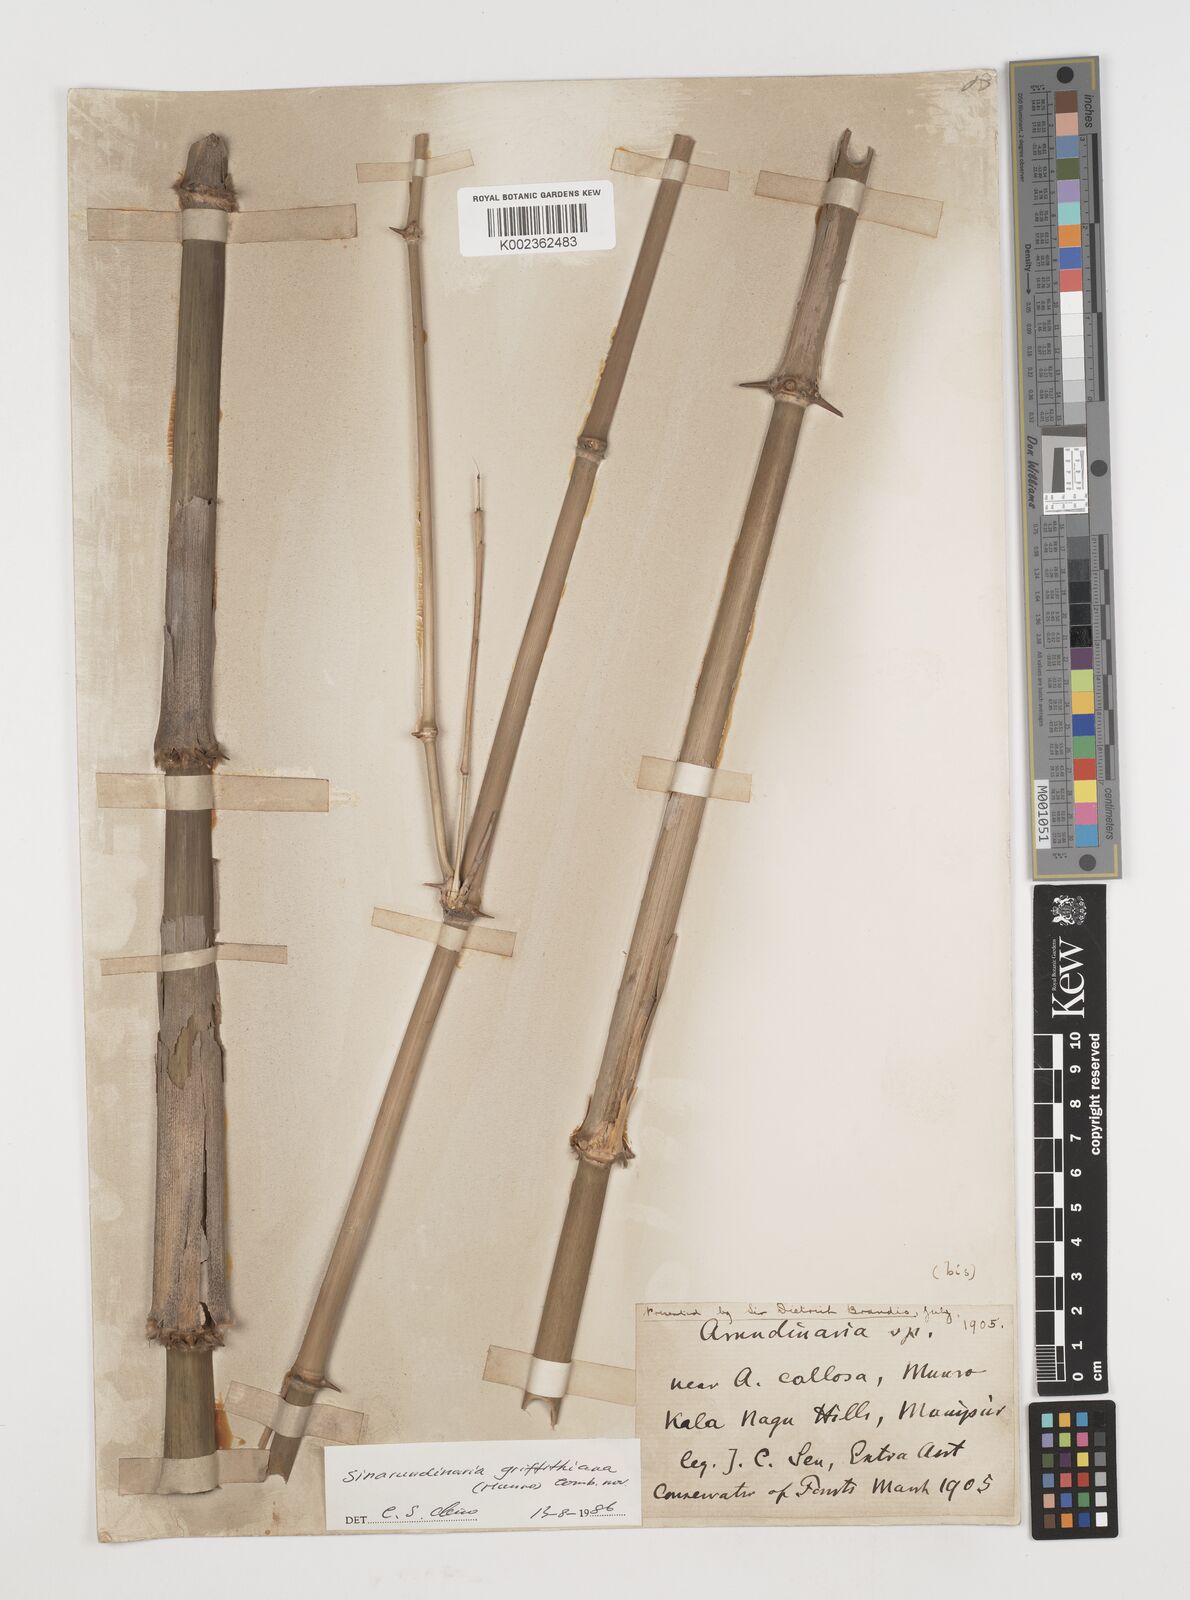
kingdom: Plantae
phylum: Tracheophyta
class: Liliopsida
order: Poales
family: Poaceae
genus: Chimonocalamus
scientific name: Chimonocalamus griffithianus
